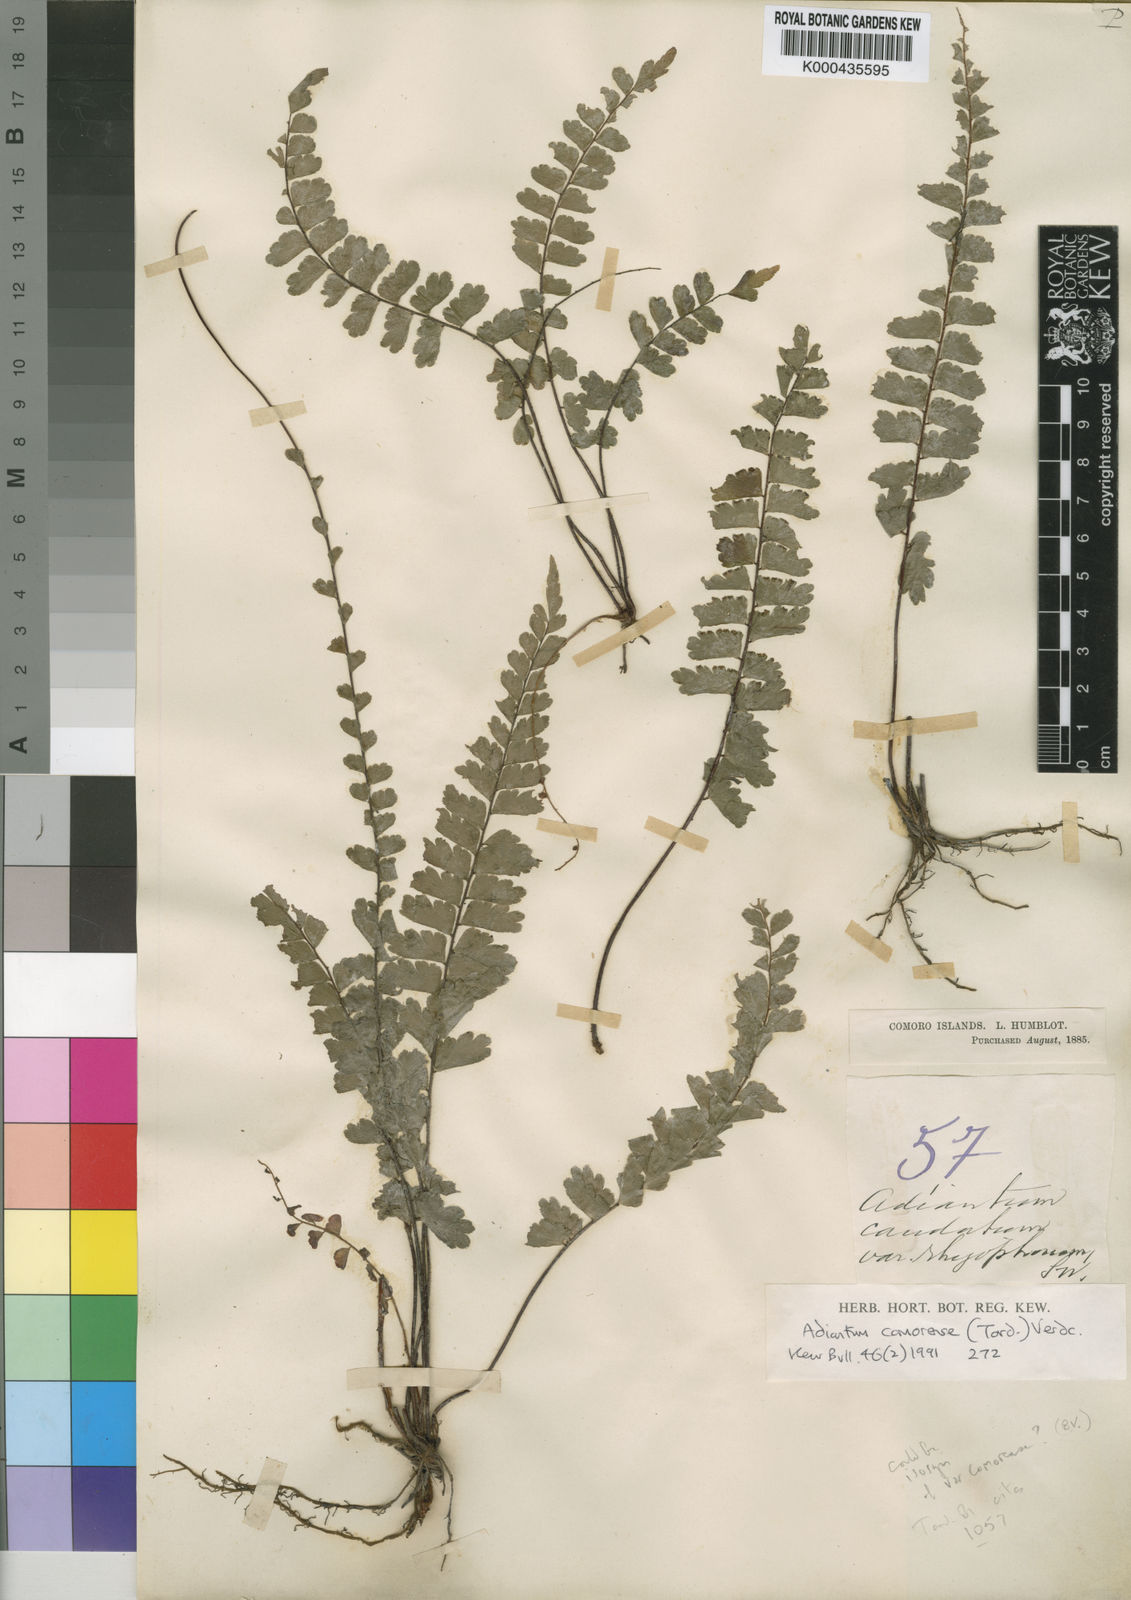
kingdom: Plantae
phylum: Tracheophyta
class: Polypodiopsida
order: Polypodiales
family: Pteridaceae
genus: Adiantum
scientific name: Adiantum
